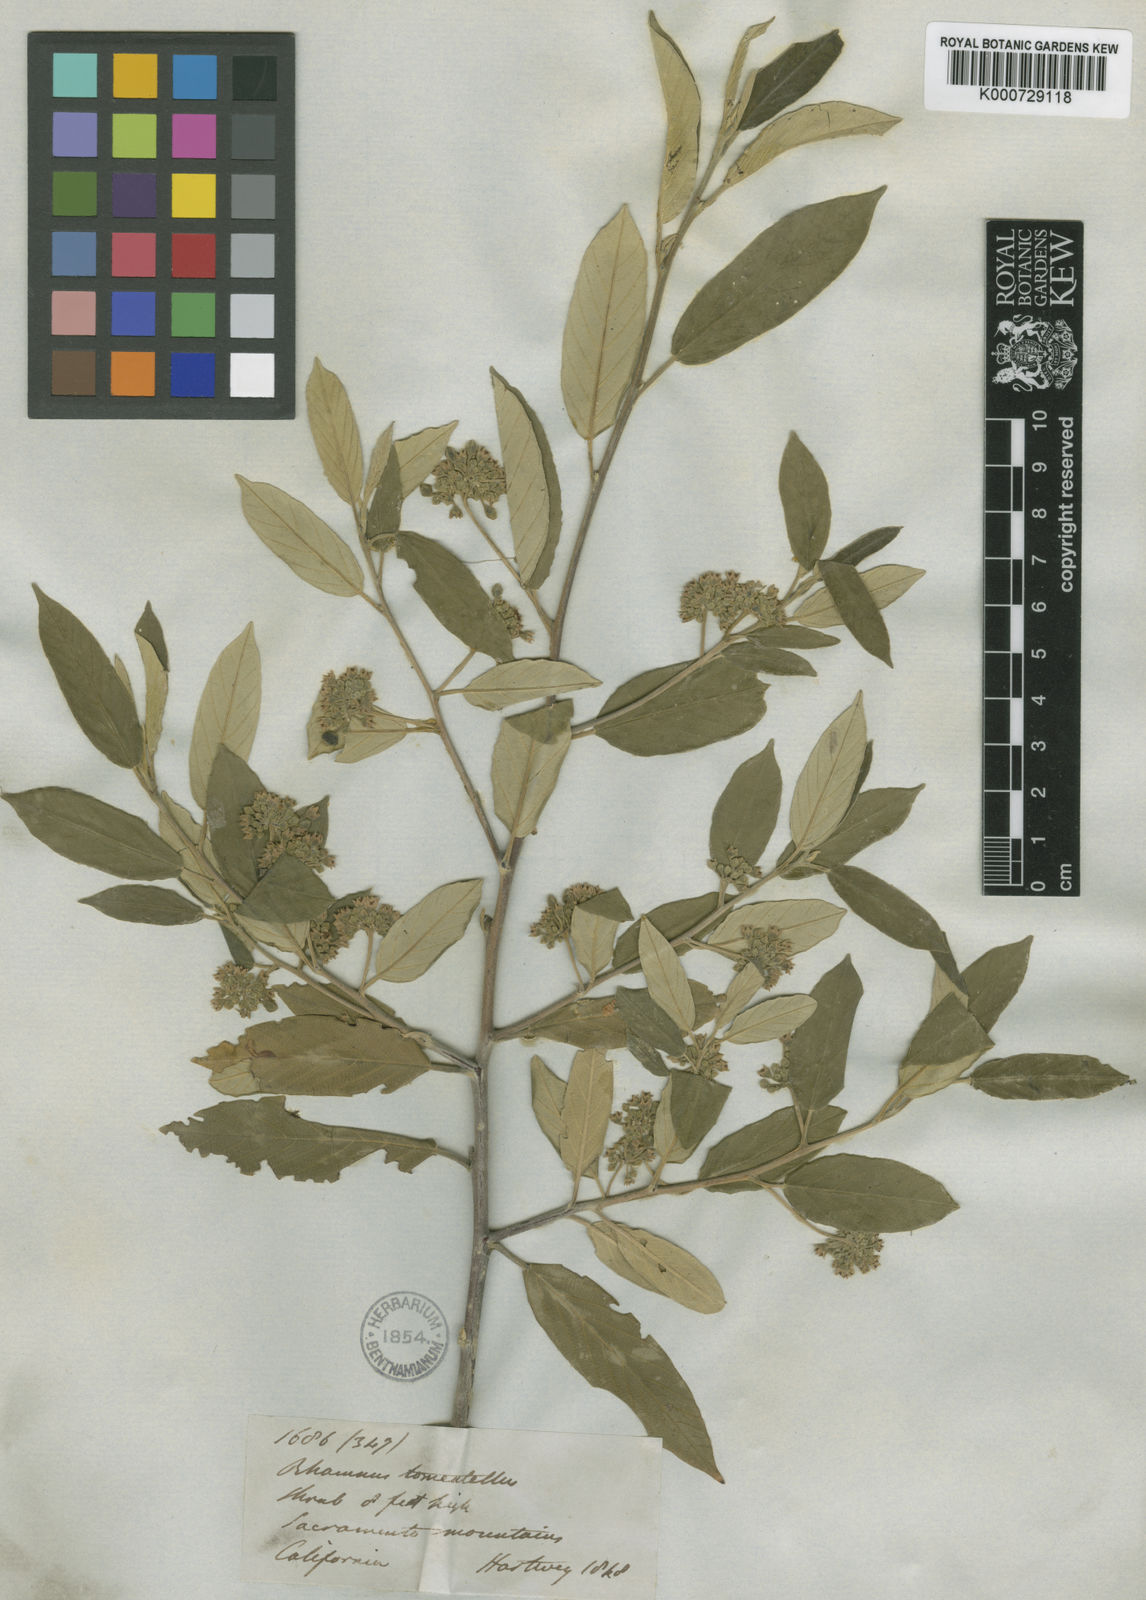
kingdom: Plantae
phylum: Tracheophyta
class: Magnoliopsida
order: Rosales
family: Rhamnaceae
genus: Frangula
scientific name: Frangula californica
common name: California buckthorn
